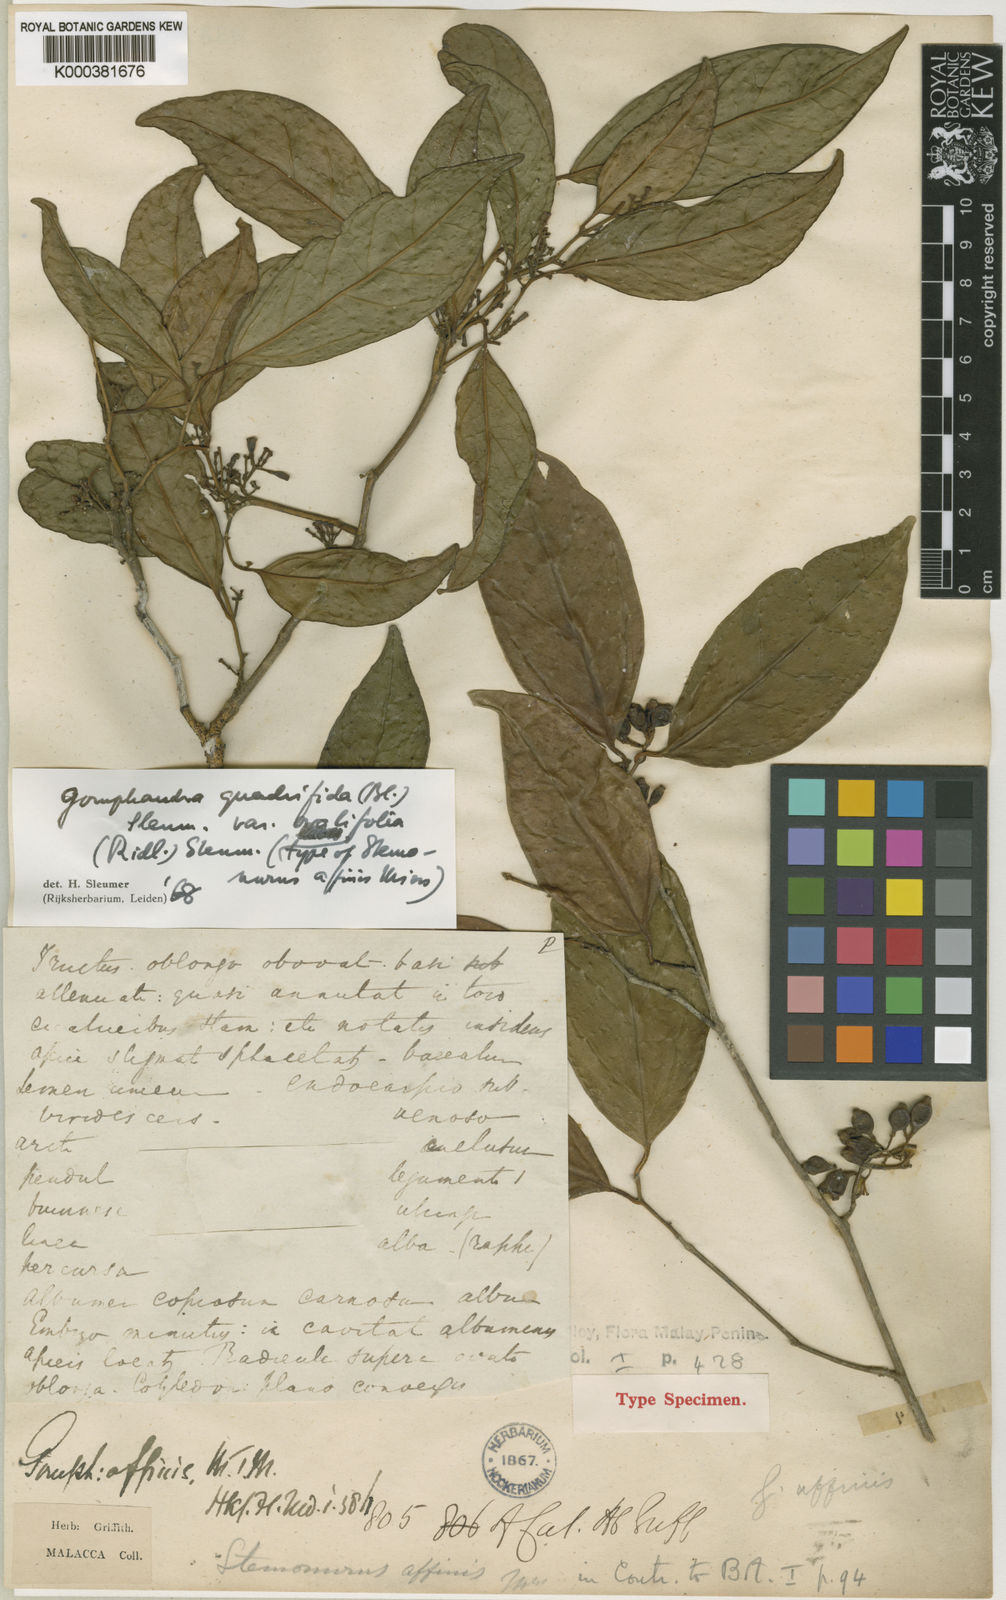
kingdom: Plantae
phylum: Tracheophyta
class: Magnoliopsida
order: Cardiopteridales
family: Stemonuraceae
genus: Gomphandra
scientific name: Gomphandra quadrifida
